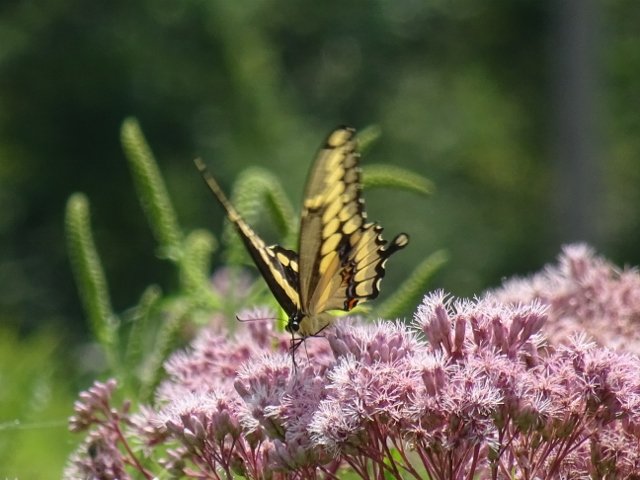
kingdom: Animalia
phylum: Arthropoda
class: Insecta
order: Lepidoptera
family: Papilionidae
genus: Papilio
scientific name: Papilio cresphontes
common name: Eastern Giant Swallowtail
